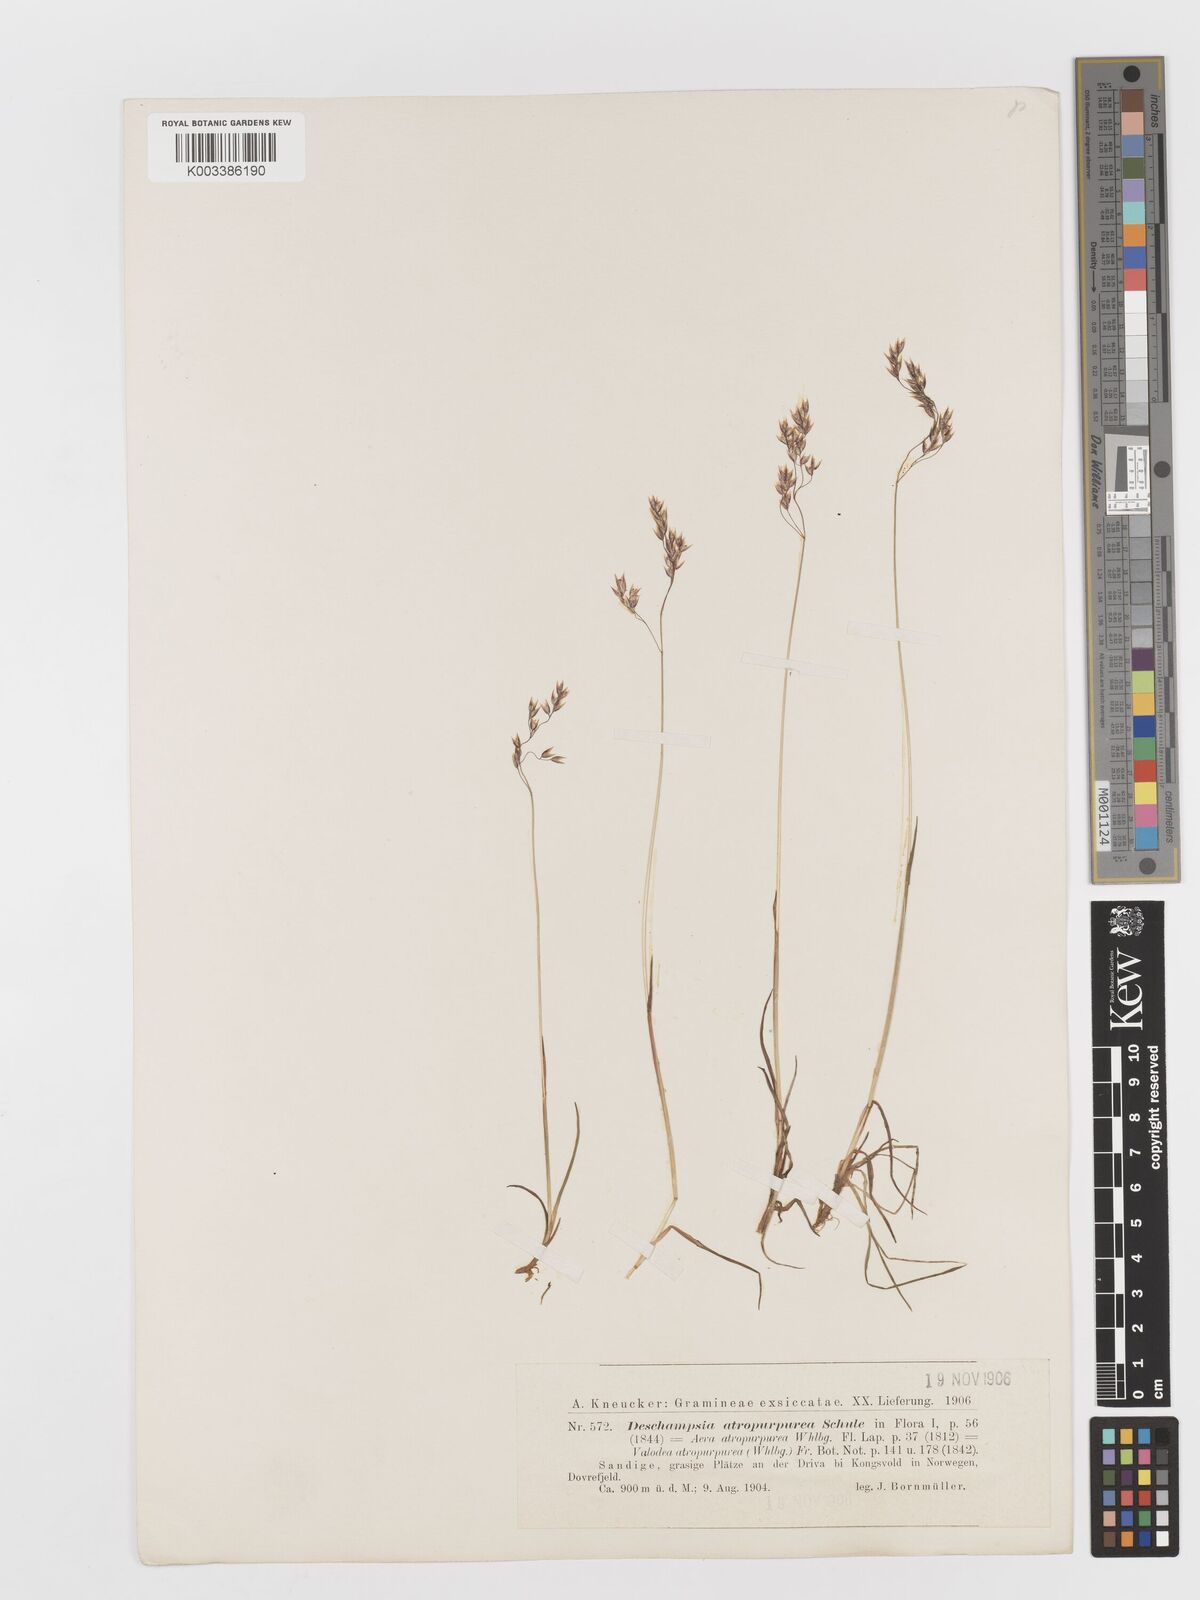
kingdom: Plantae
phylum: Tracheophyta
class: Liliopsida
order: Poales
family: Poaceae
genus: Vahlodea
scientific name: Vahlodea atropurpurea
